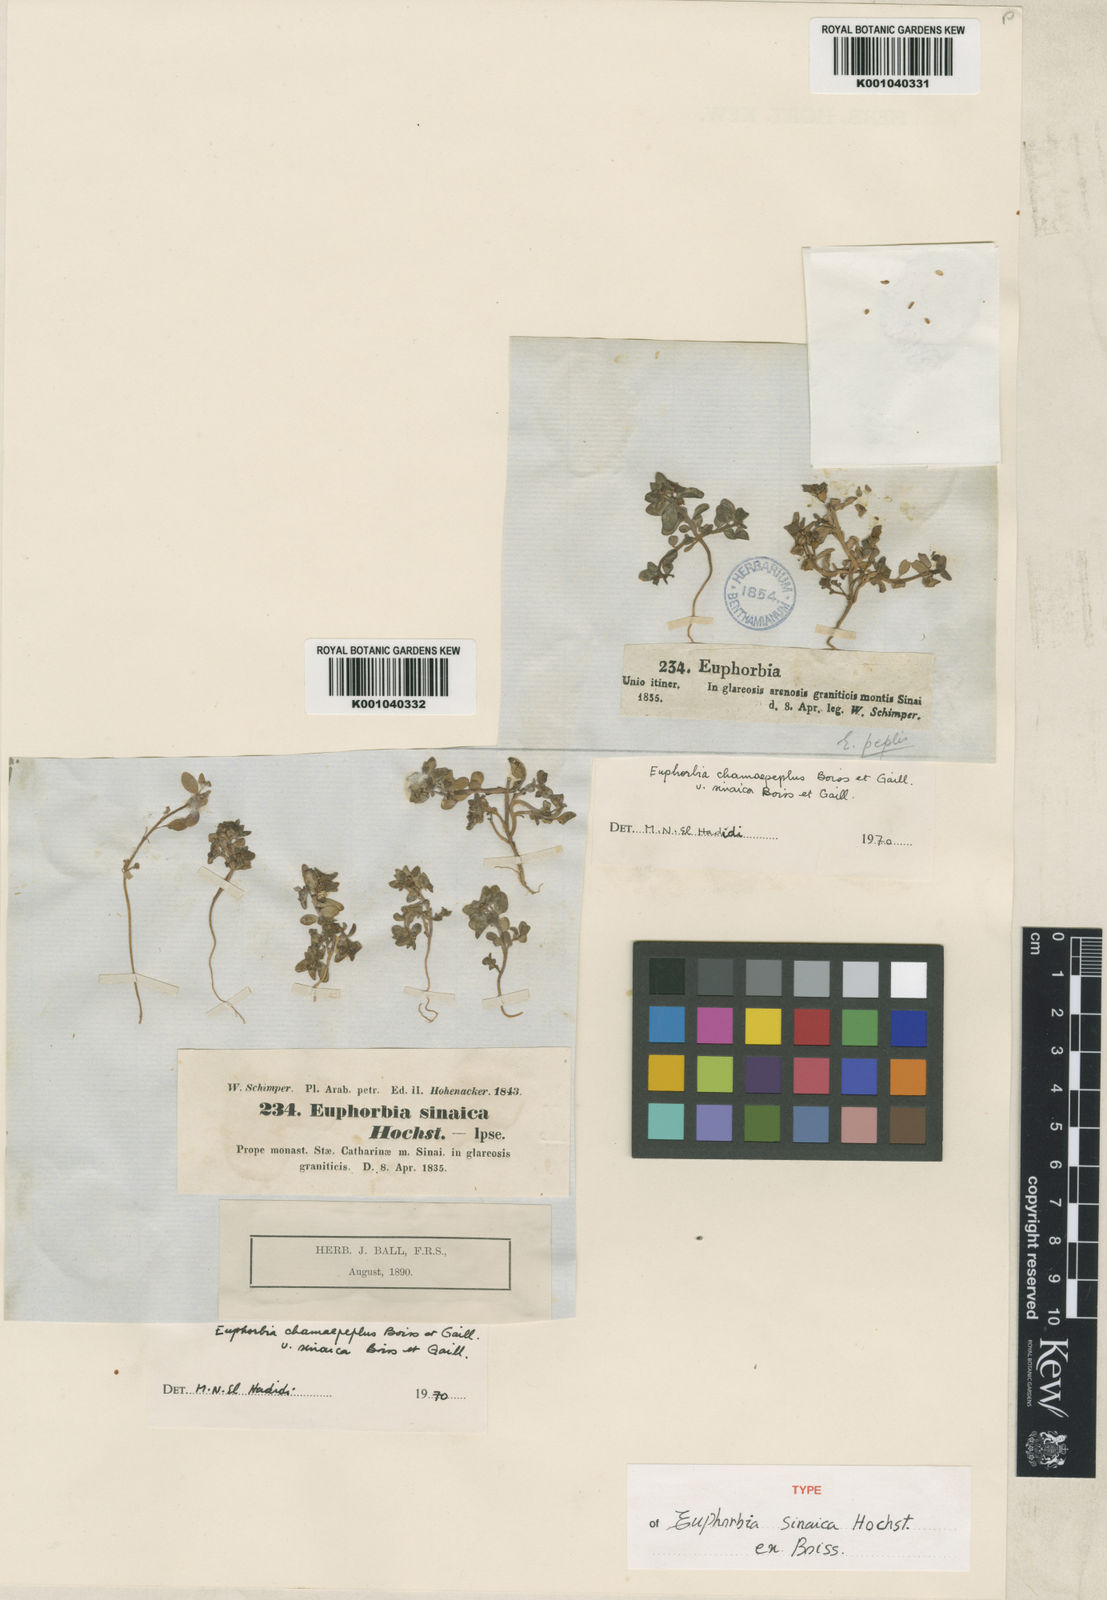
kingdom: Plantae
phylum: Tracheophyta
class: Magnoliopsida
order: Malpighiales
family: Euphorbiaceae
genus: Euphorbia
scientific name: Euphorbia chamaepeplus
